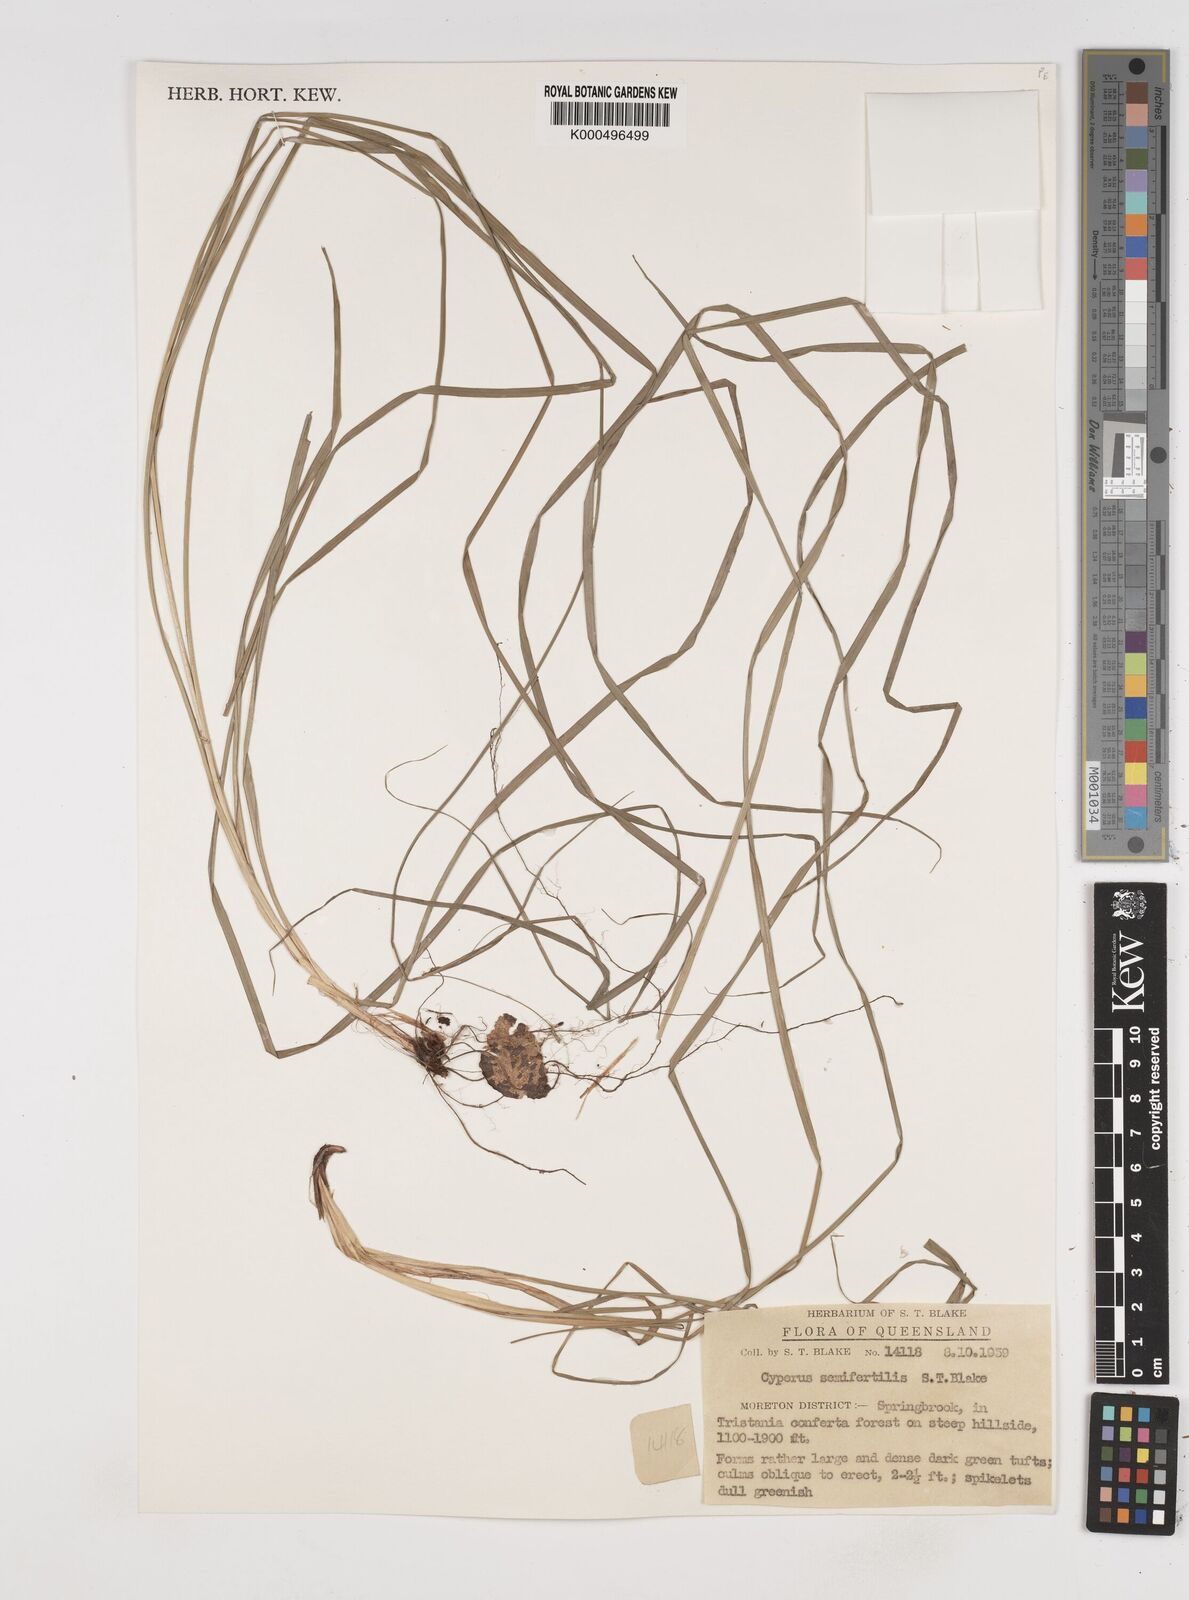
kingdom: Plantae
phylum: Tracheophyta
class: Liliopsida
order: Poales
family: Cyperaceae
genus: Cyperus
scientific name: Cyperus semifertilis
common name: Missionary nutgrass
